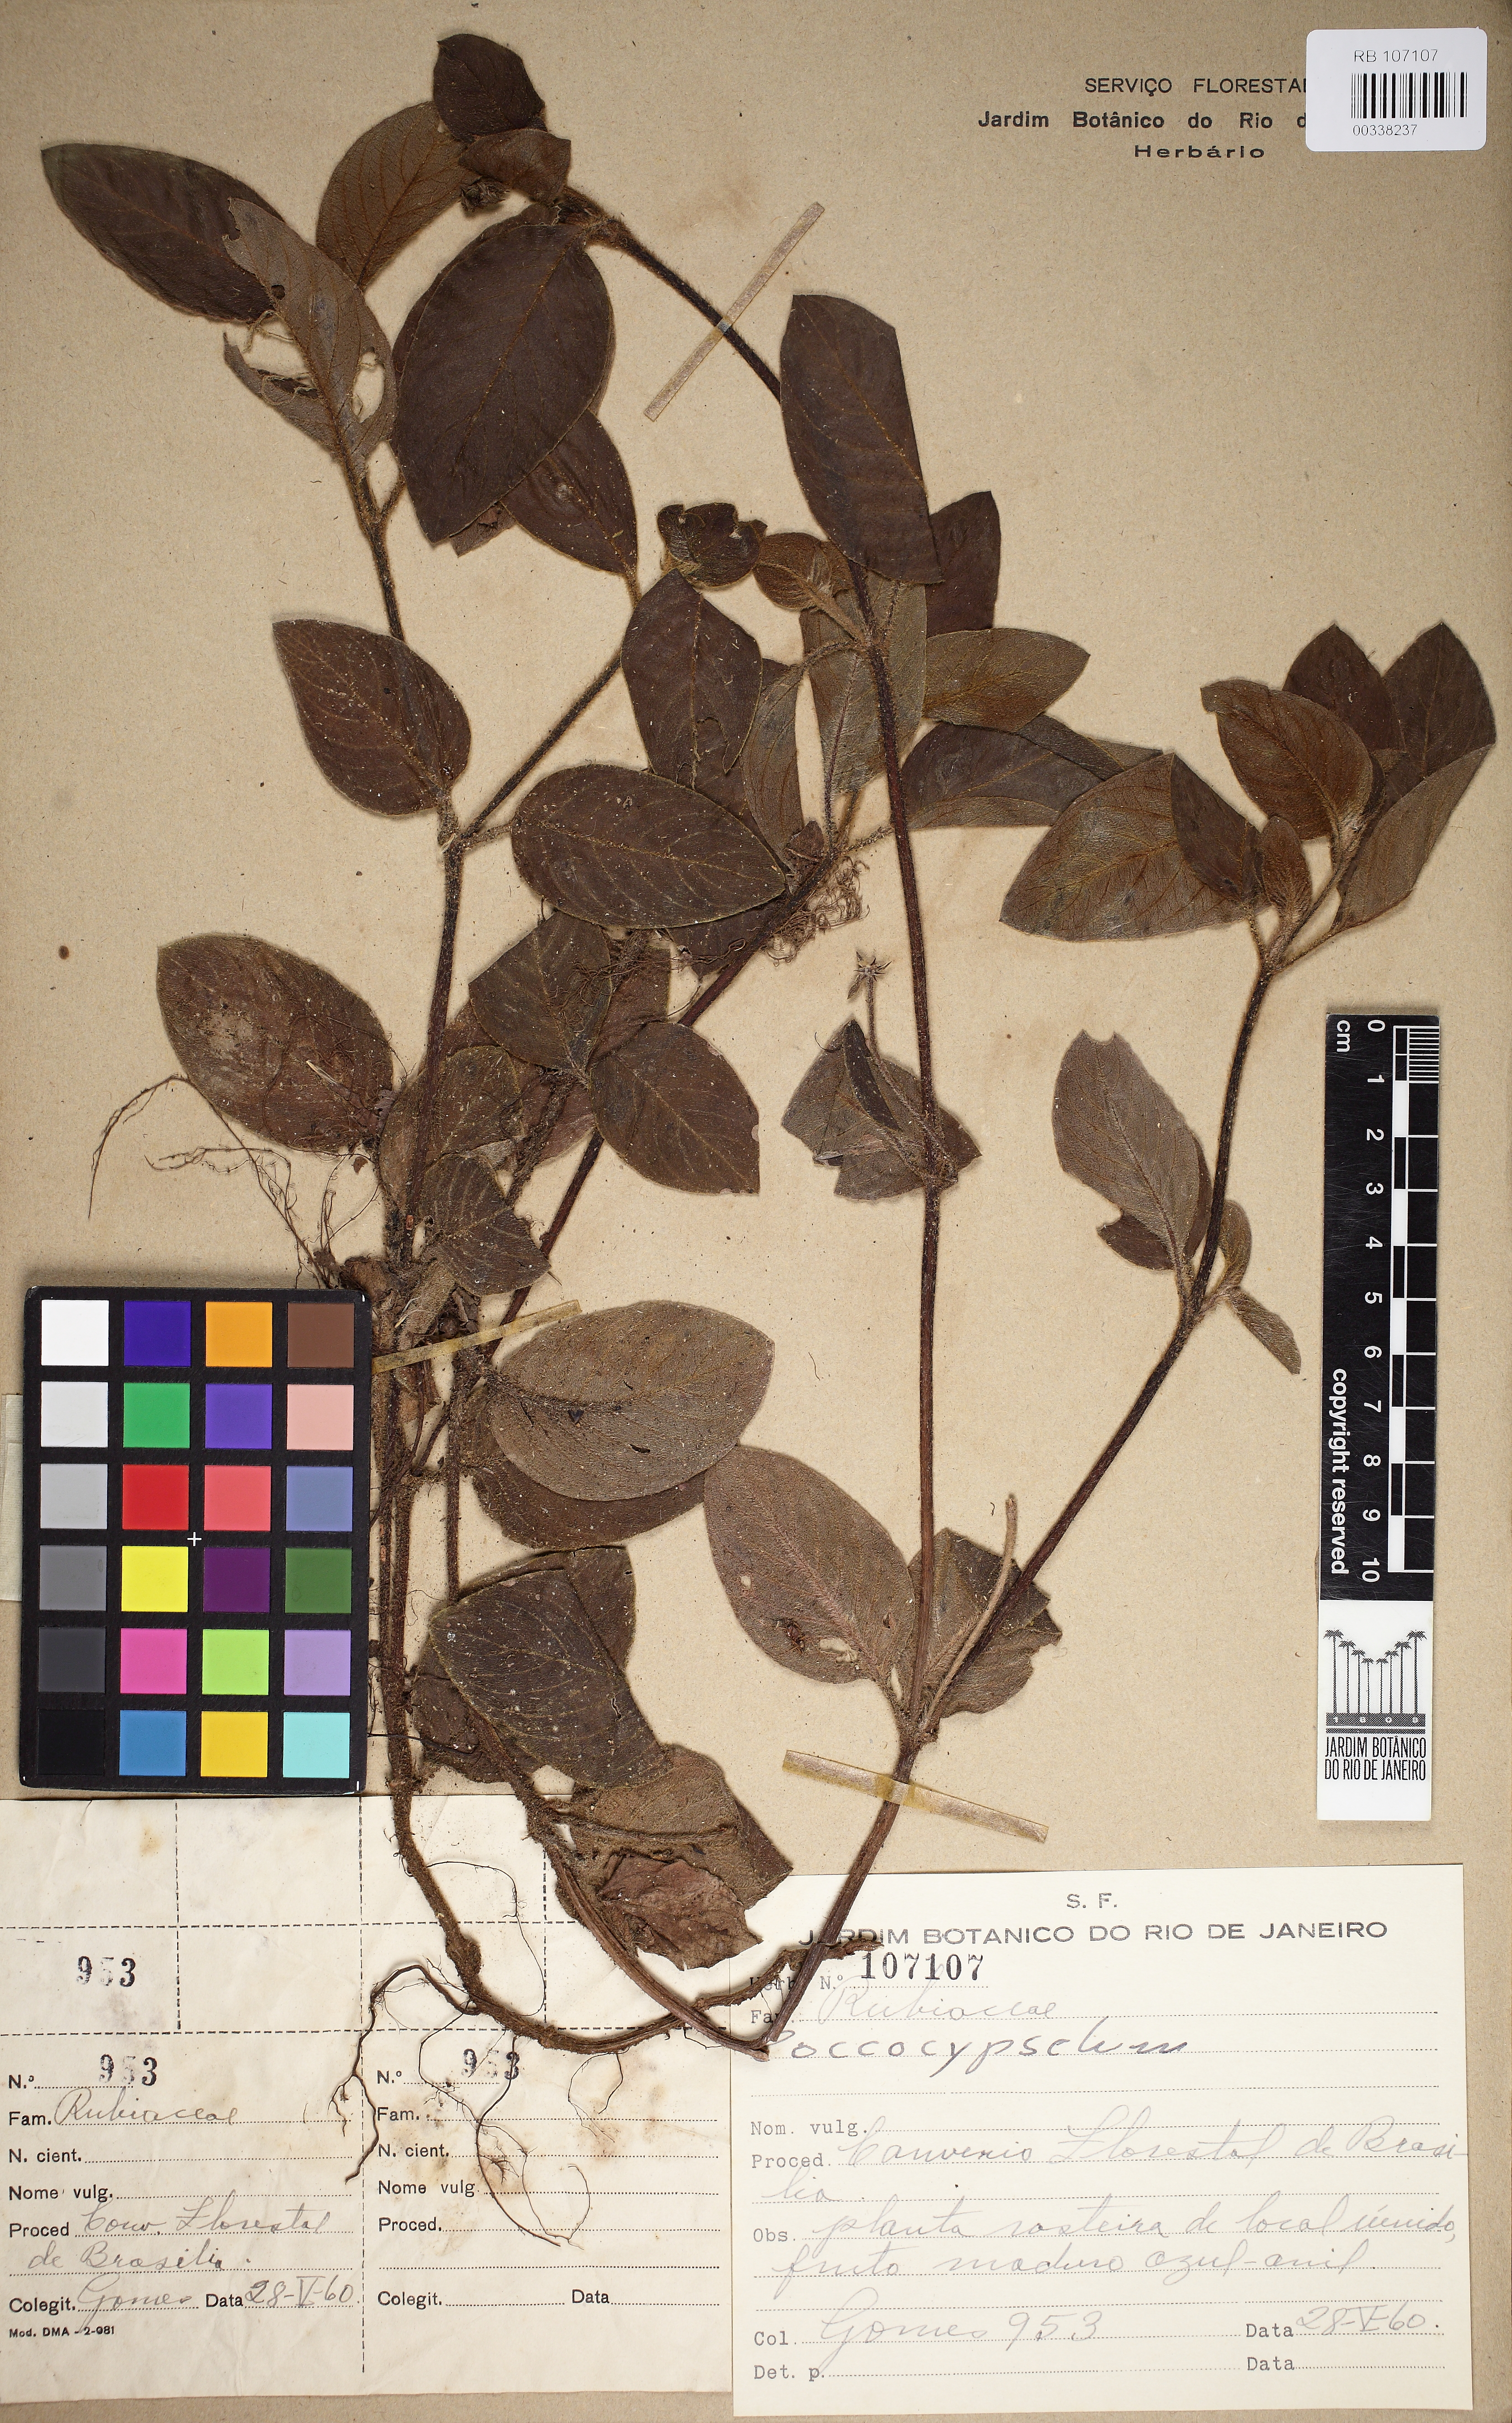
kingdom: Plantae
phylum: Tracheophyta
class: Magnoliopsida
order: Gentianales
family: Rubiaceae
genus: Coccocypselum
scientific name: Coccocypselum
